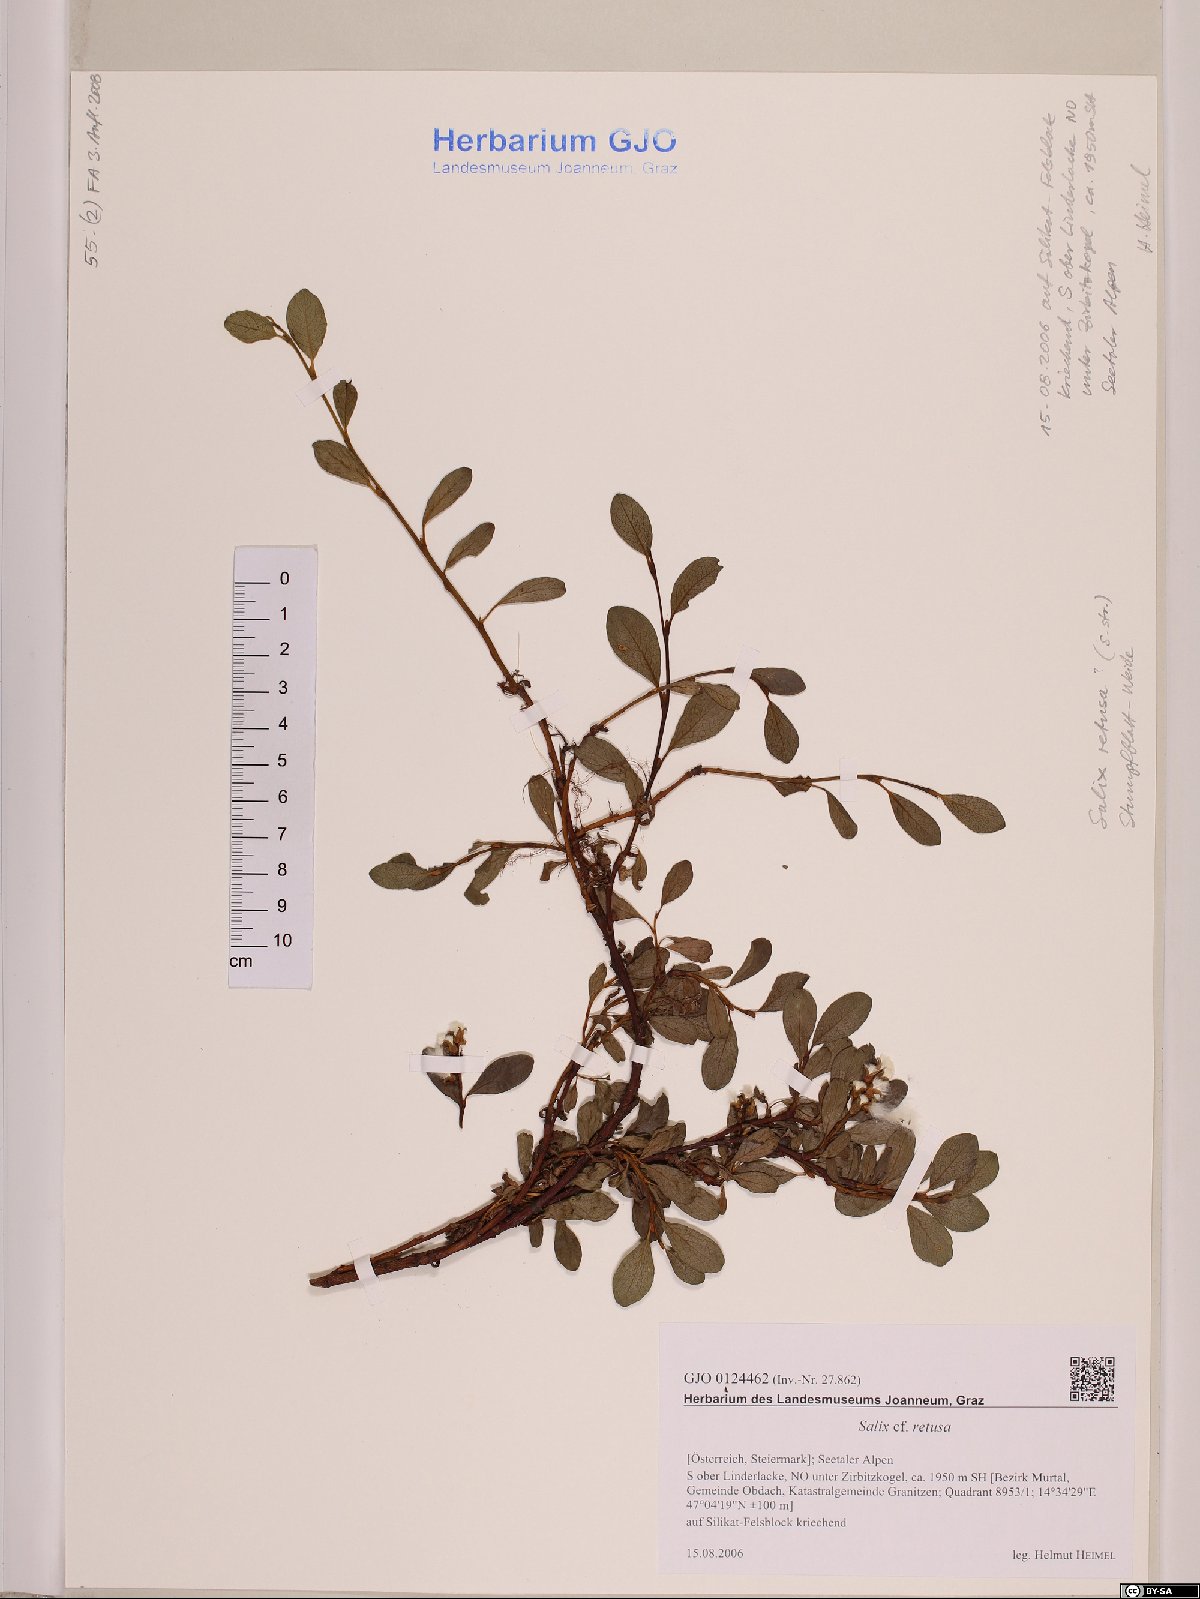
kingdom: Plantae
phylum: Tracheophyta
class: Magnoliopsida
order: Malpighiales
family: Salicaceae
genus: Salix
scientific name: Salix retusa
